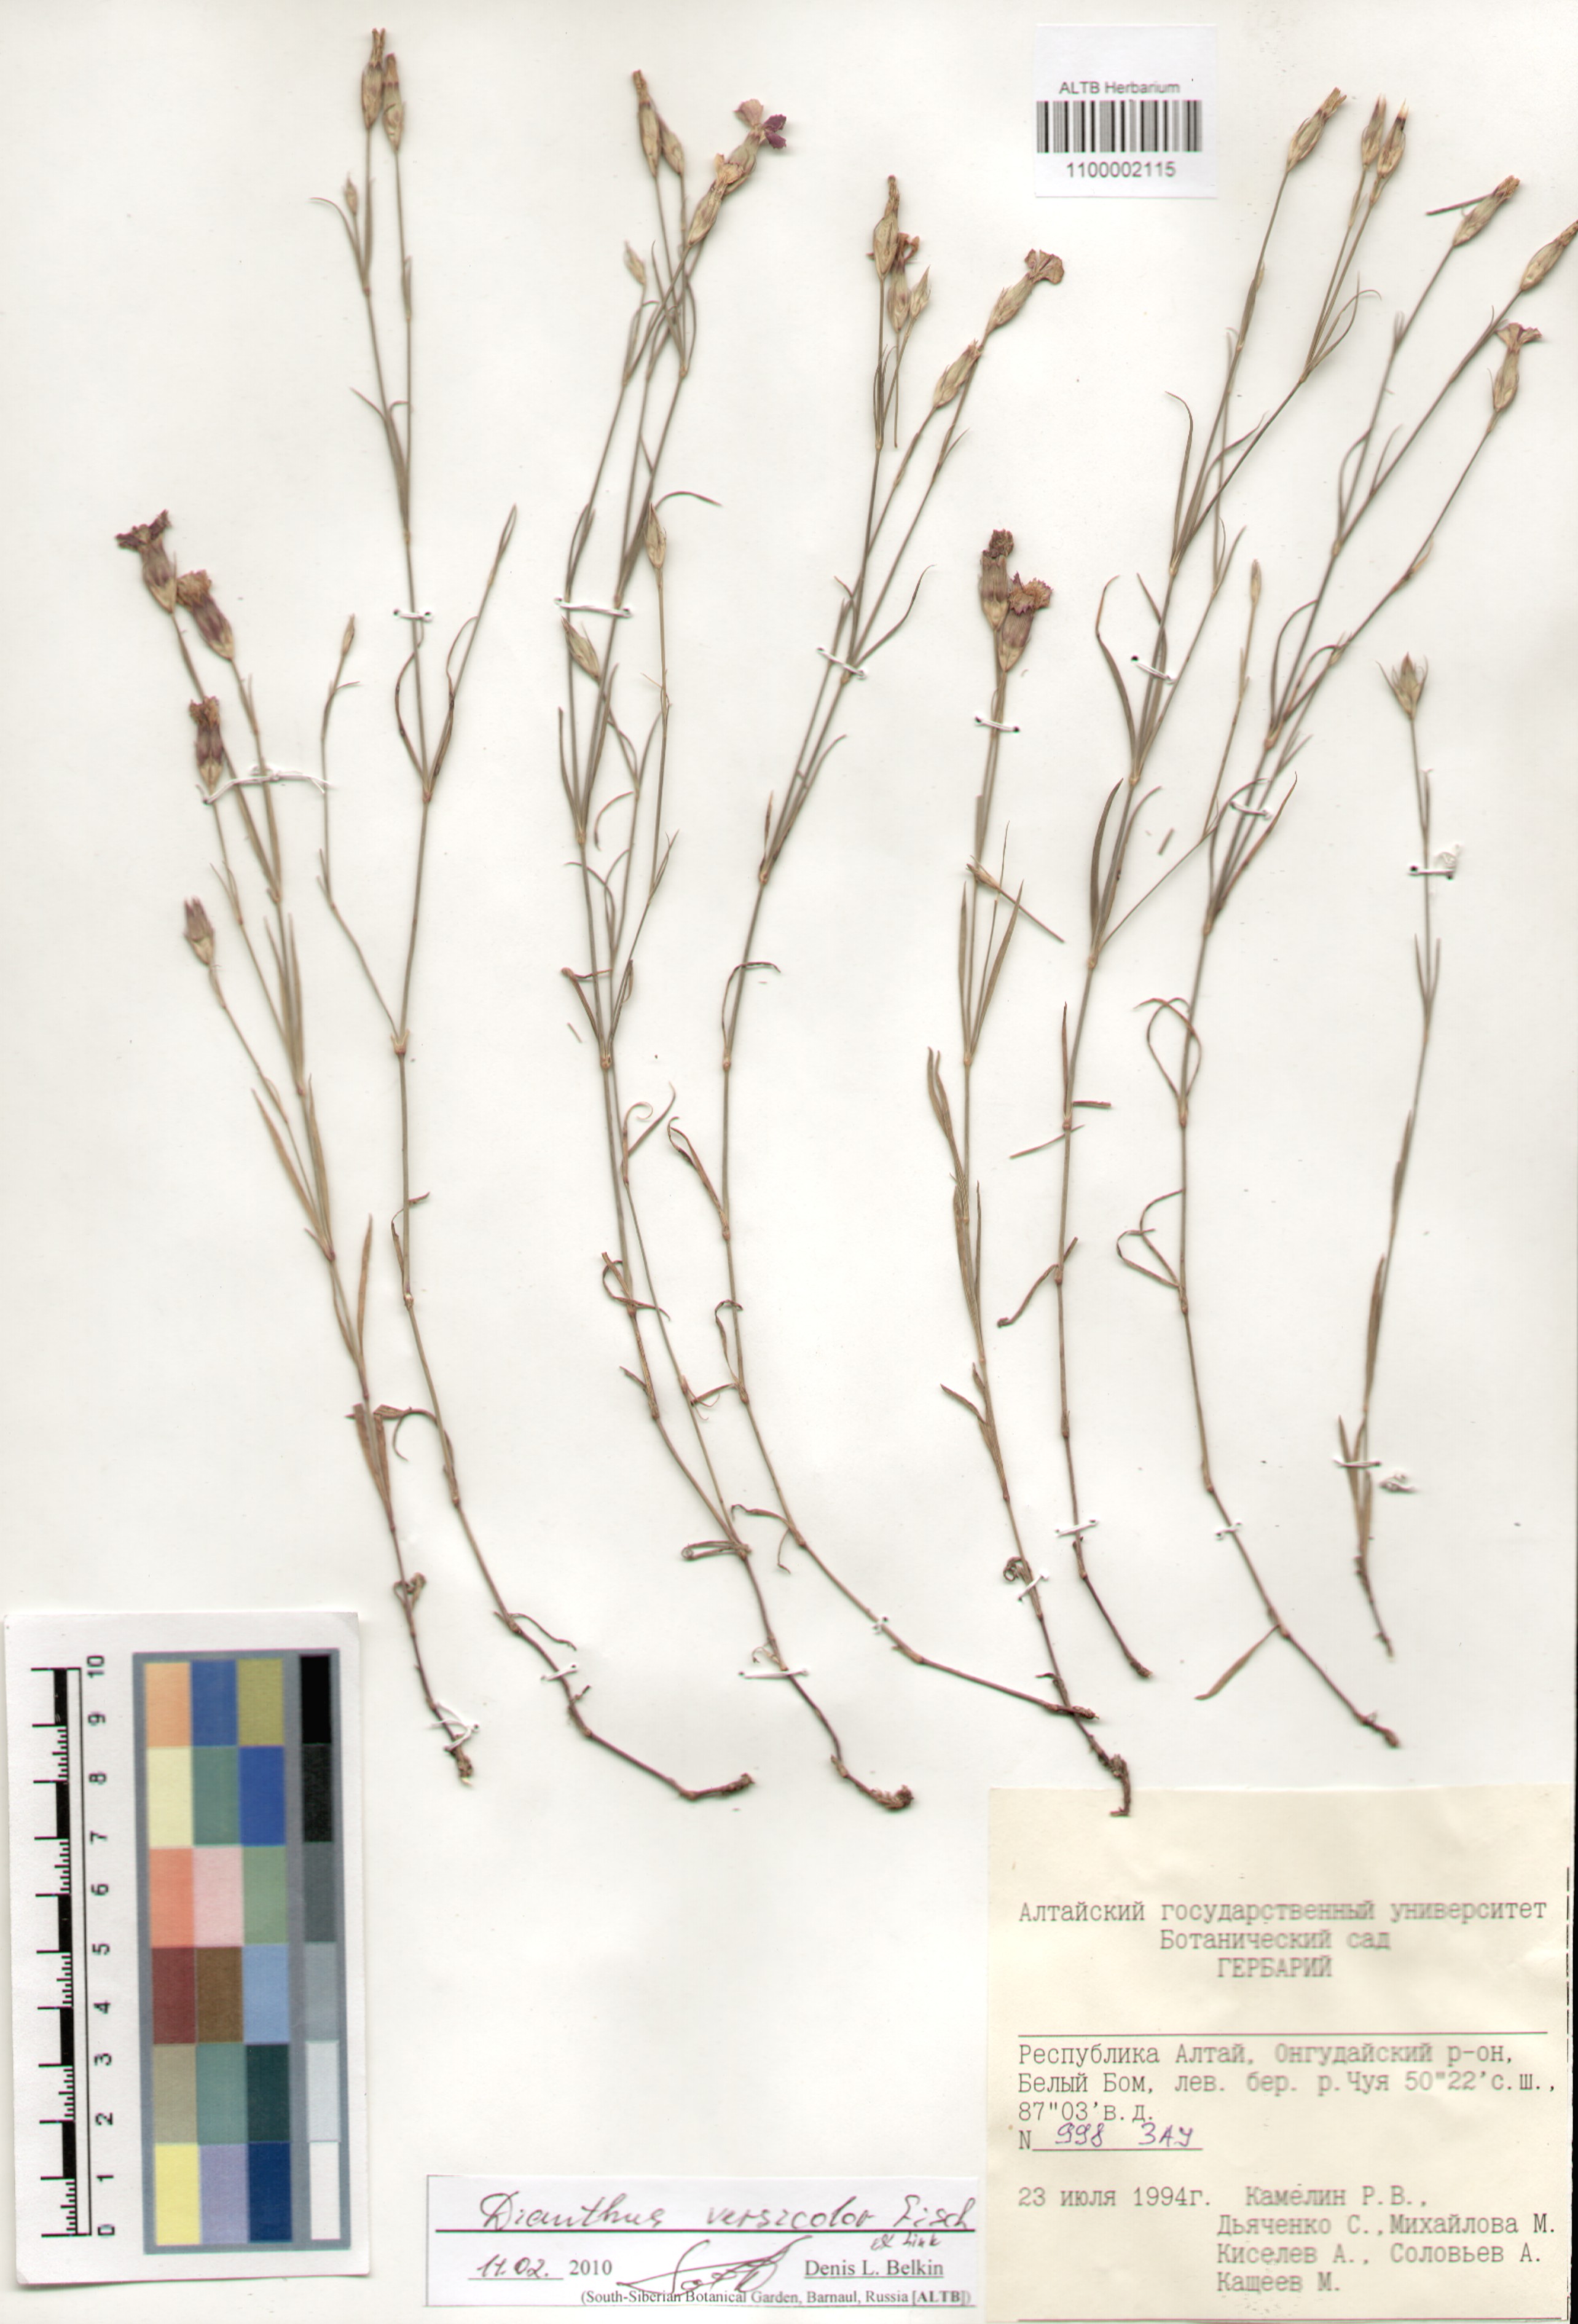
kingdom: Plantae
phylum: Tracheophyta
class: Magnoliopsida
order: Caryophyllales
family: Caryophyllaceae
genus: Dianthus
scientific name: Dianthus chinensis
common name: Rainbow pink
